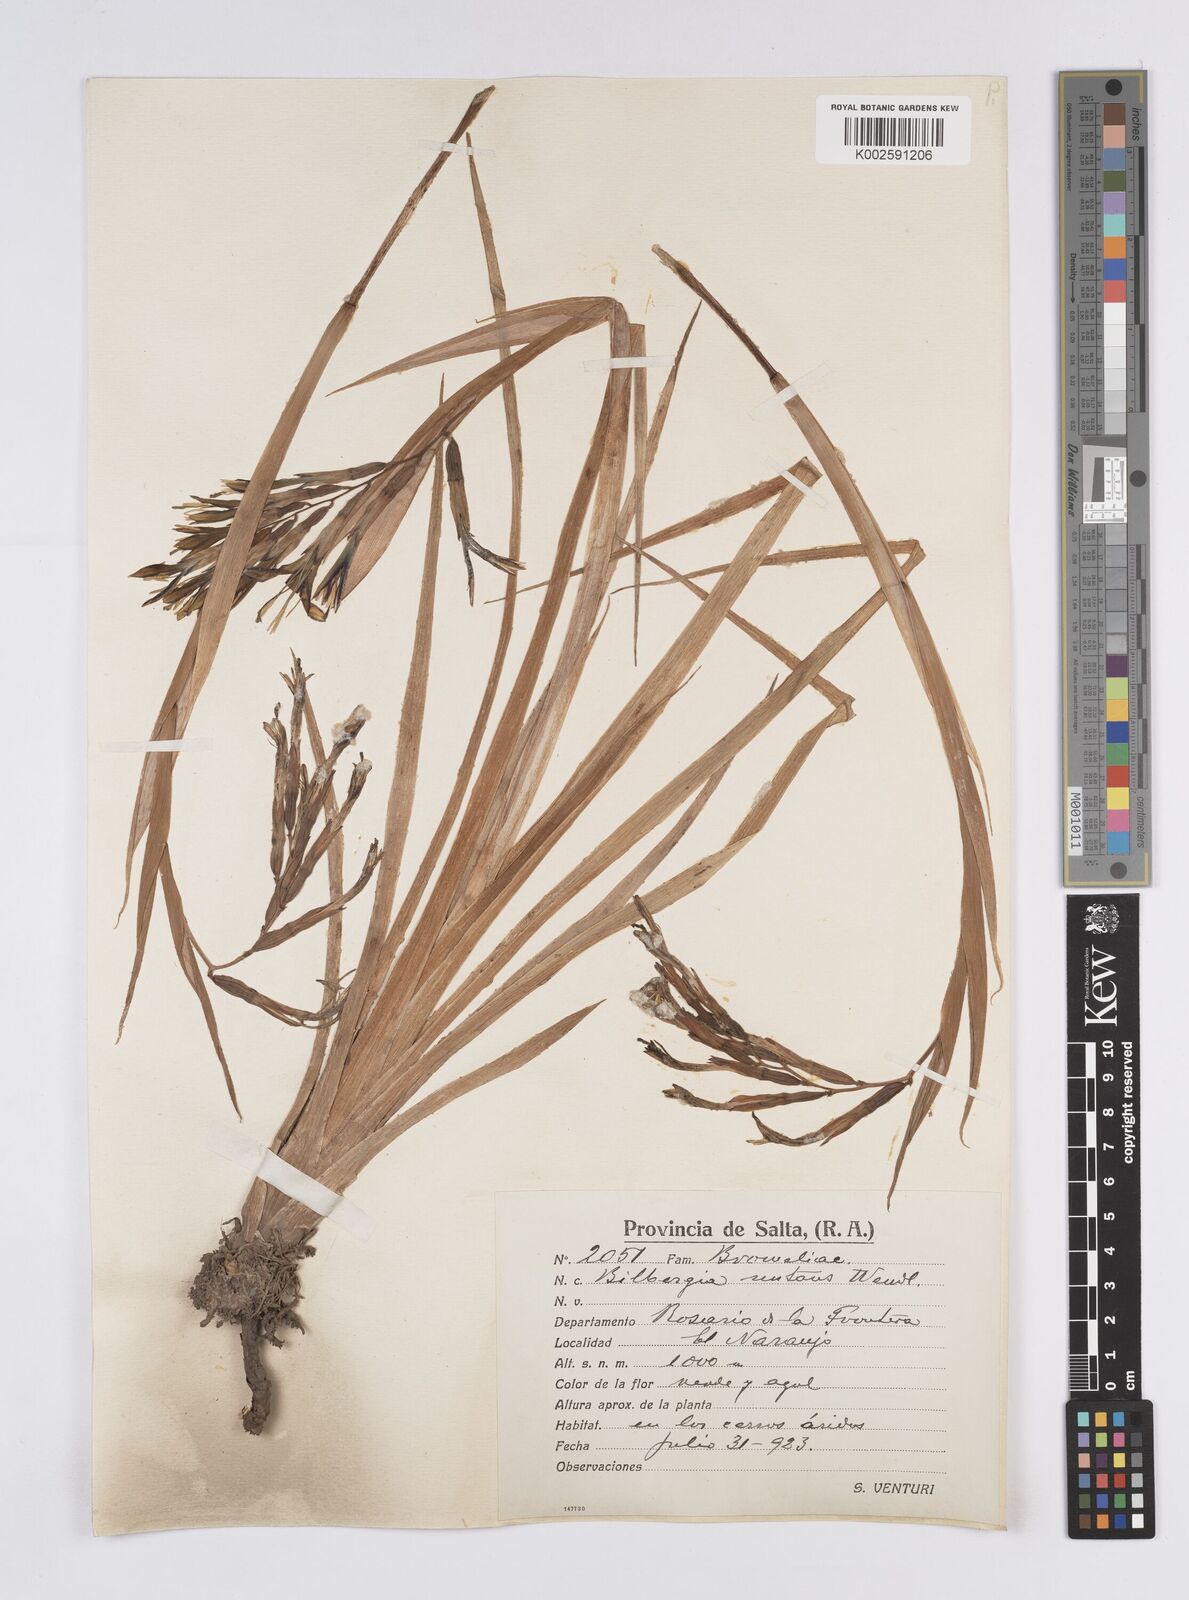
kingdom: Plantae
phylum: Tracheophyta
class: Liliopsida
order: Poales
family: Bromeliaceae
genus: Billbergia
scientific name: Billbergia nutans
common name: Friendship-plant
